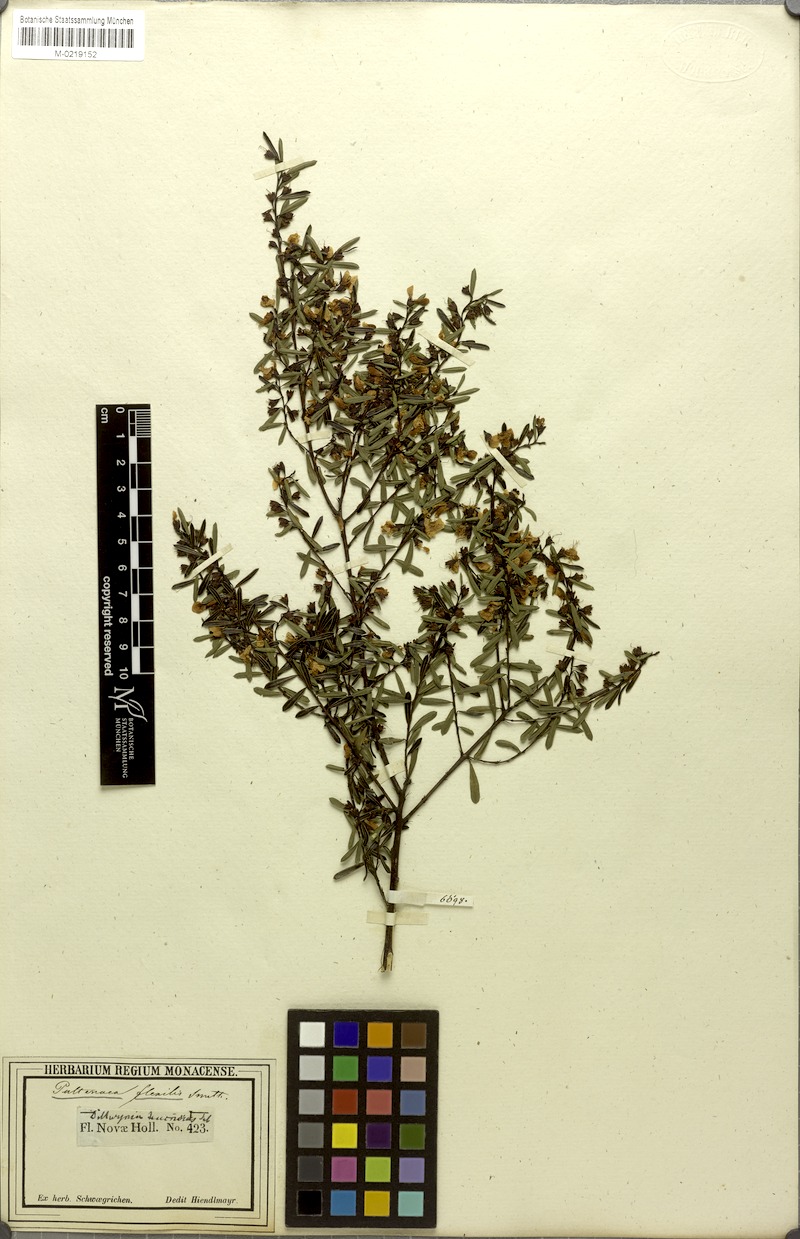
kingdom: Plantae
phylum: Tracheophyta
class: Magnoliopsida
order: Fabales
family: Fabaceae
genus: Pultenaea
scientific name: Pultenaea flexilis
